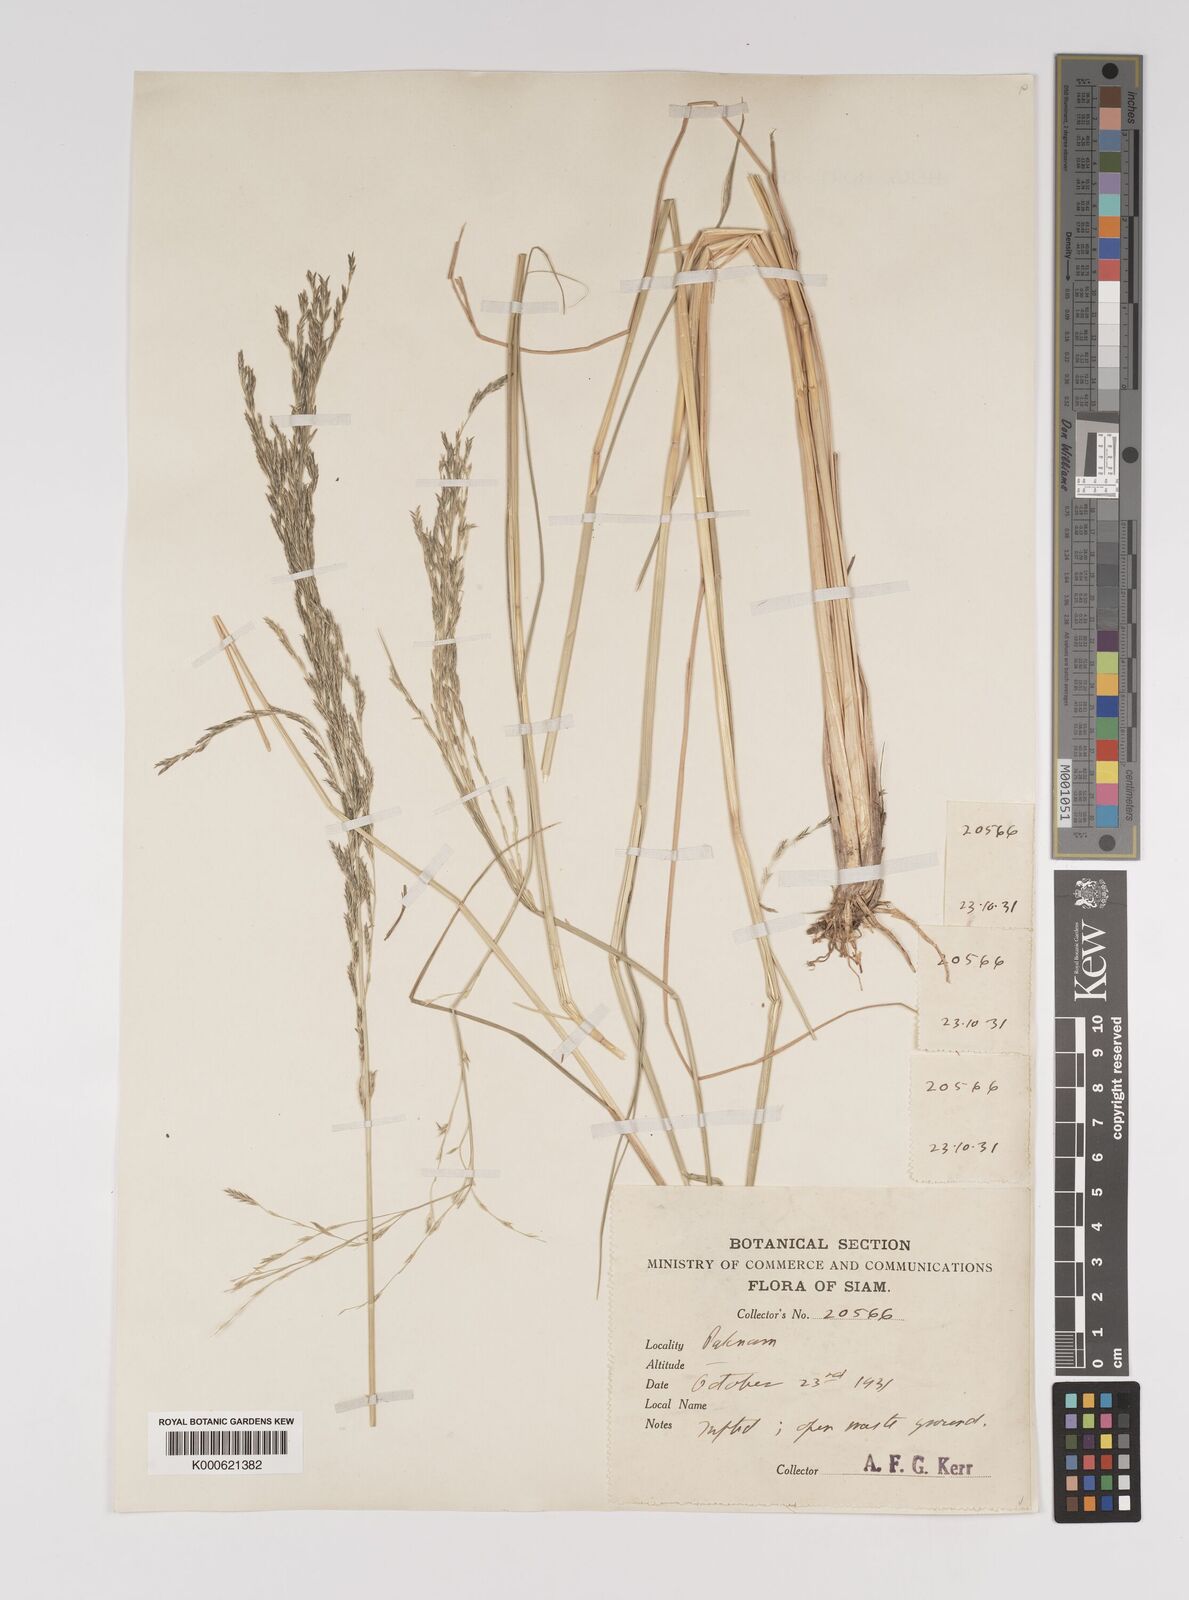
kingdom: Plantae
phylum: Tracheophyta
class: Liliopsida
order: Poales
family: Poaceae
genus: Diplachne
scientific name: Diplachne fusca
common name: Brown beetle grass
